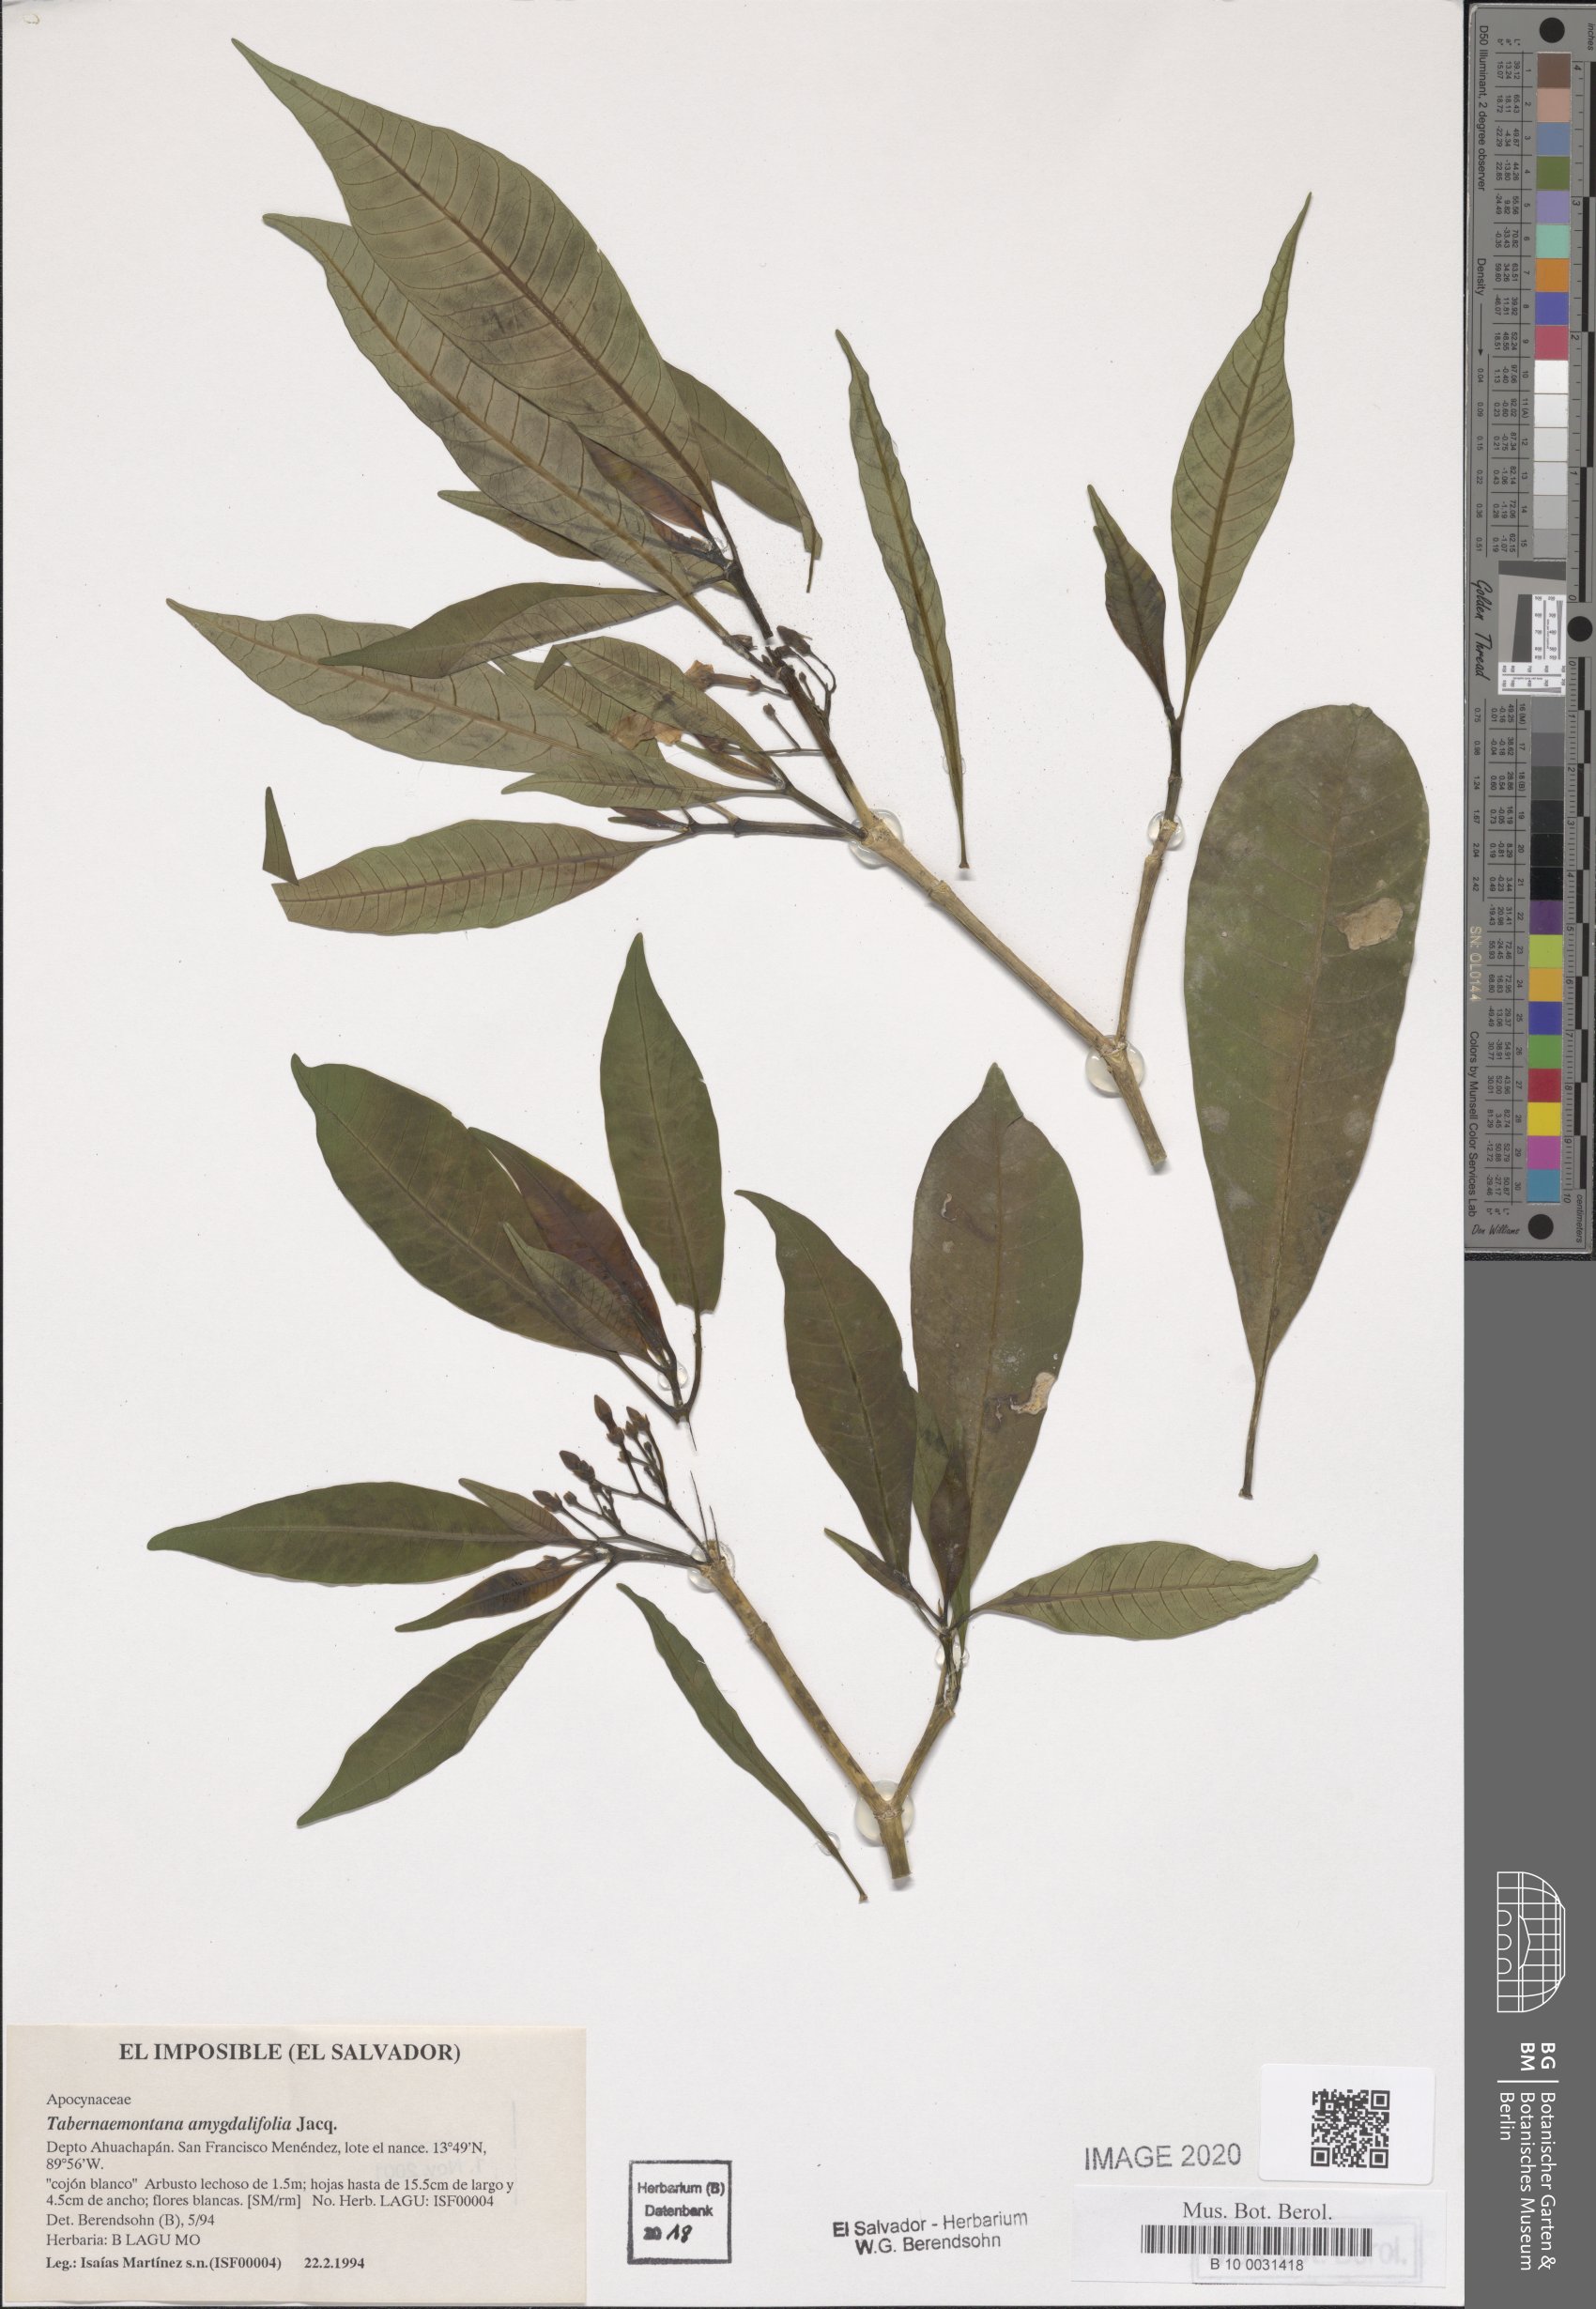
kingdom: Plantae
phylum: Tracheophyta
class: Magnoliopsida
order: Gentianales
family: Apocynaceae
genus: Tabernaemontana
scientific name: Tabernaemontana amygdalifolia
